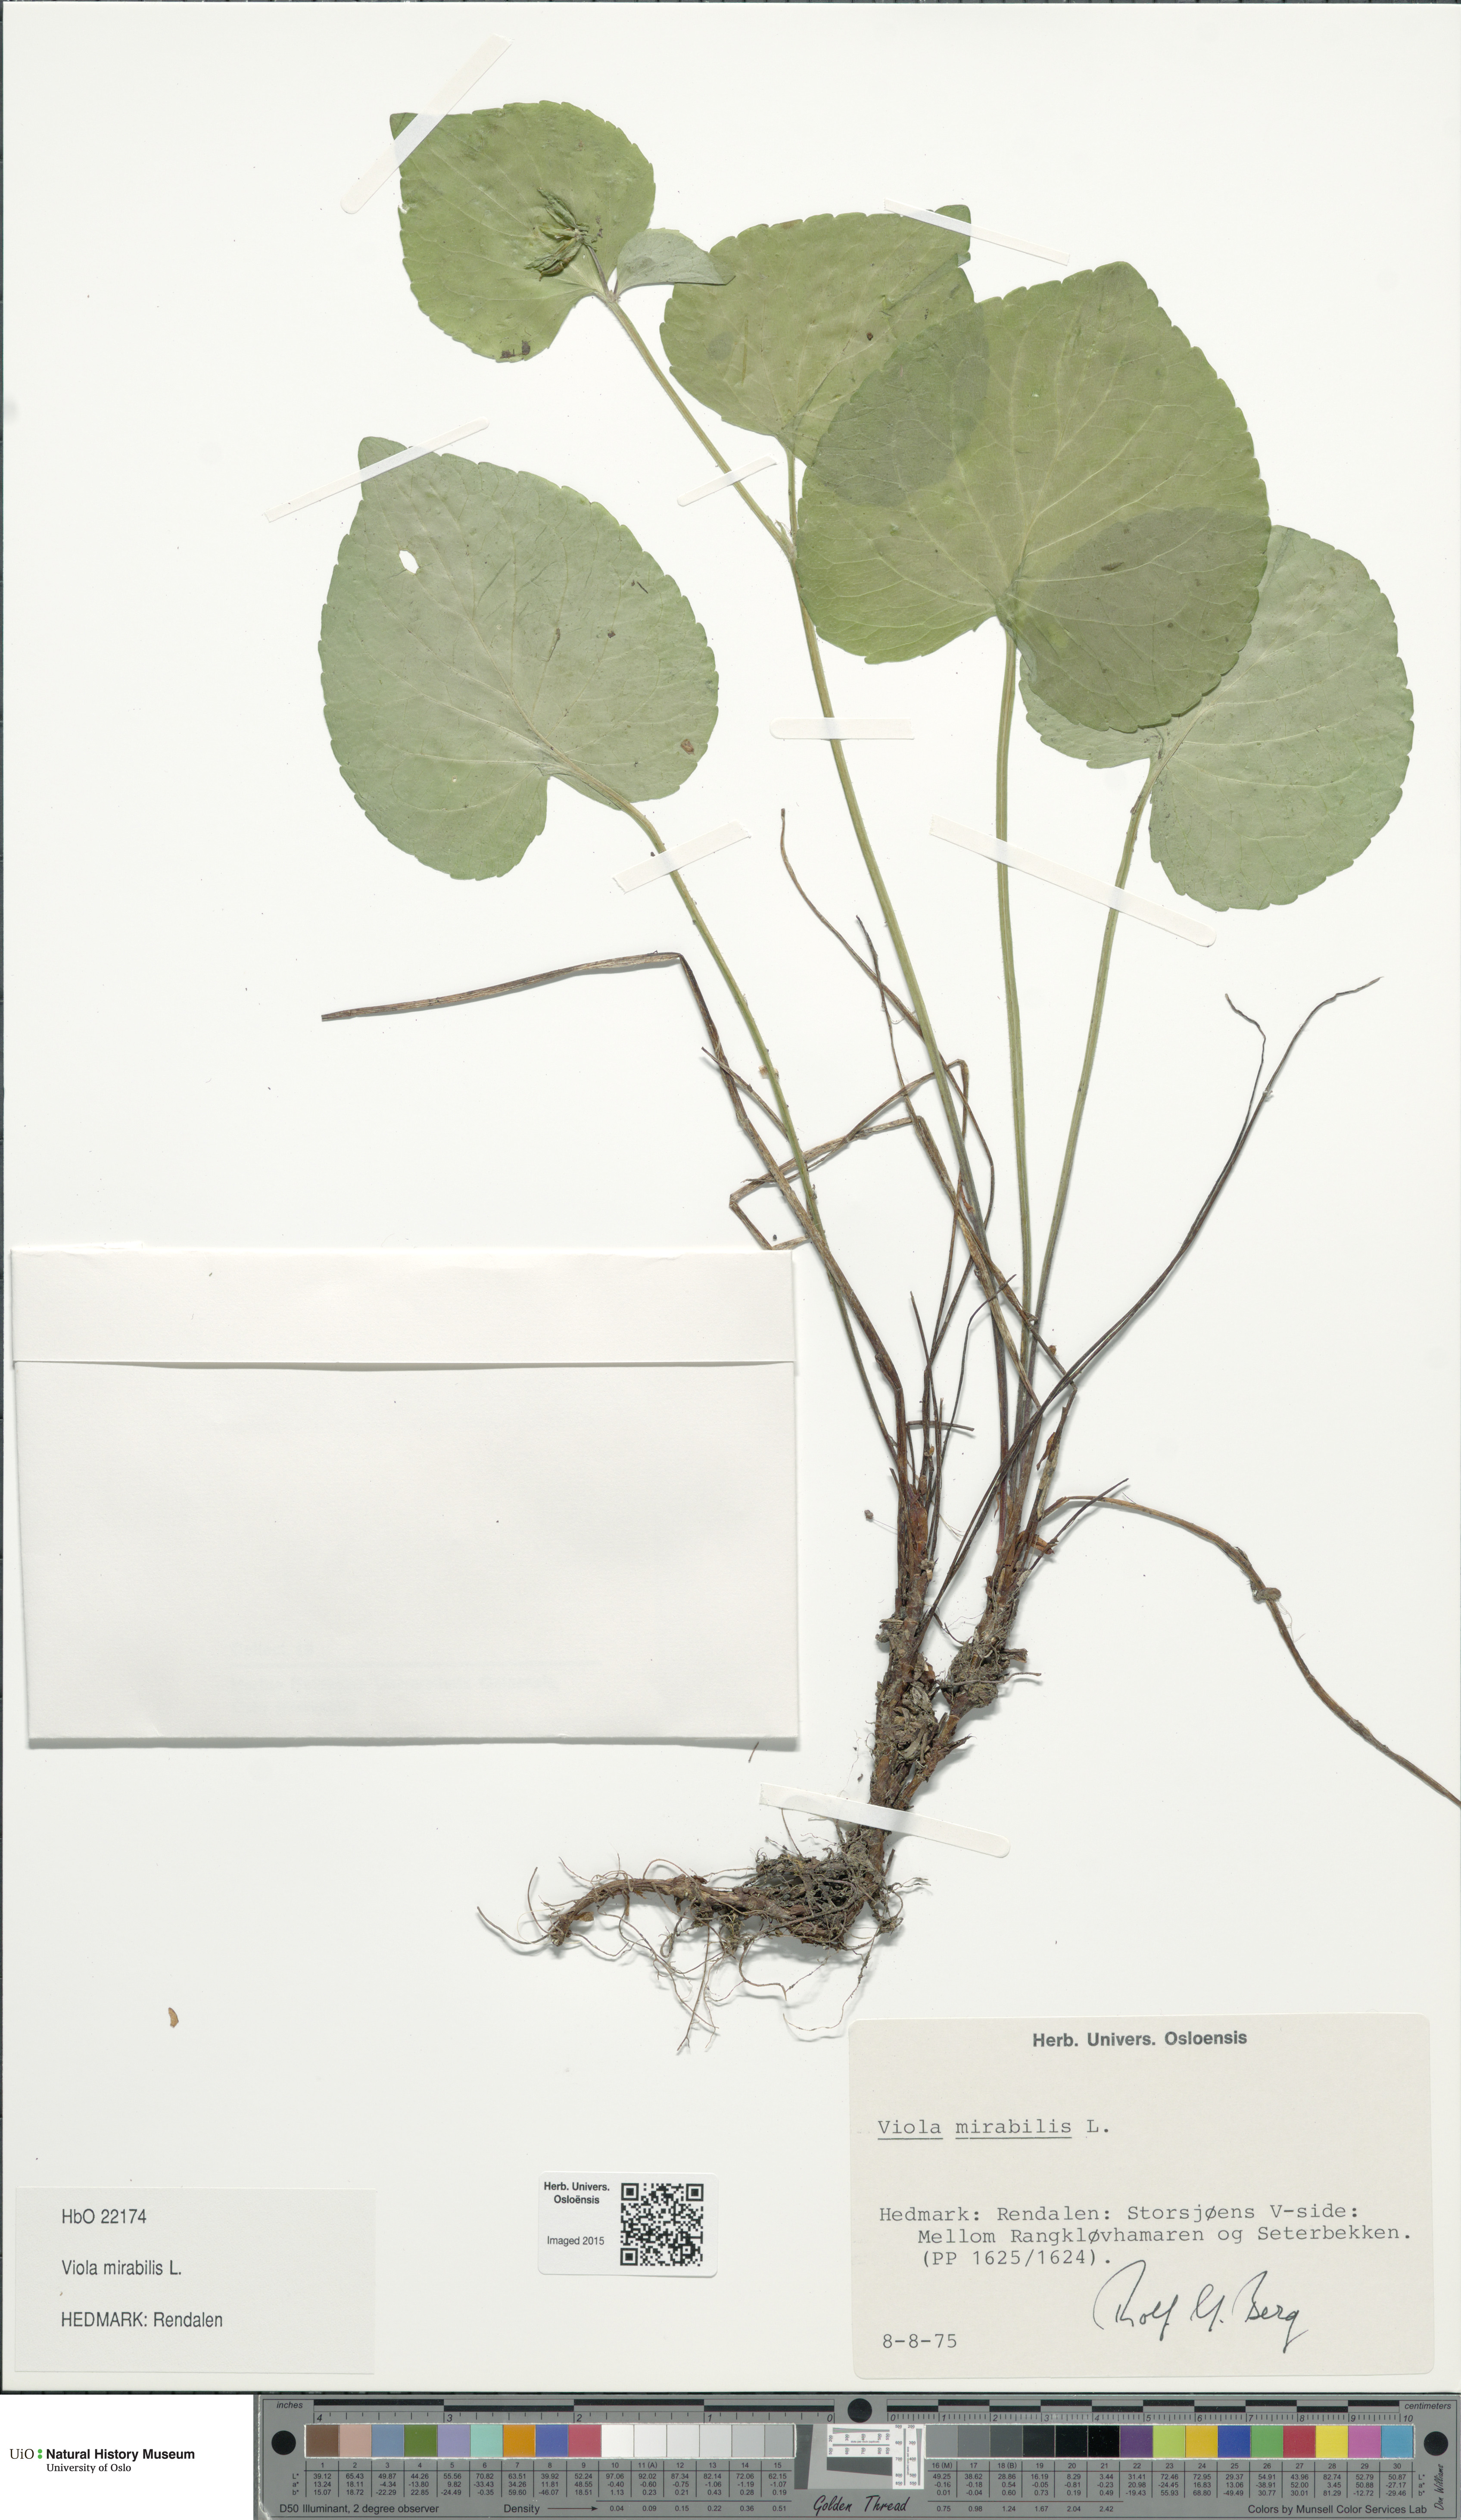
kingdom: Plantae
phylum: Tracheophyta
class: Magnoliopsida
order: Malpighiales
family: Violaceae
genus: Viola
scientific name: Viola mirabilis
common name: Wonder violet
